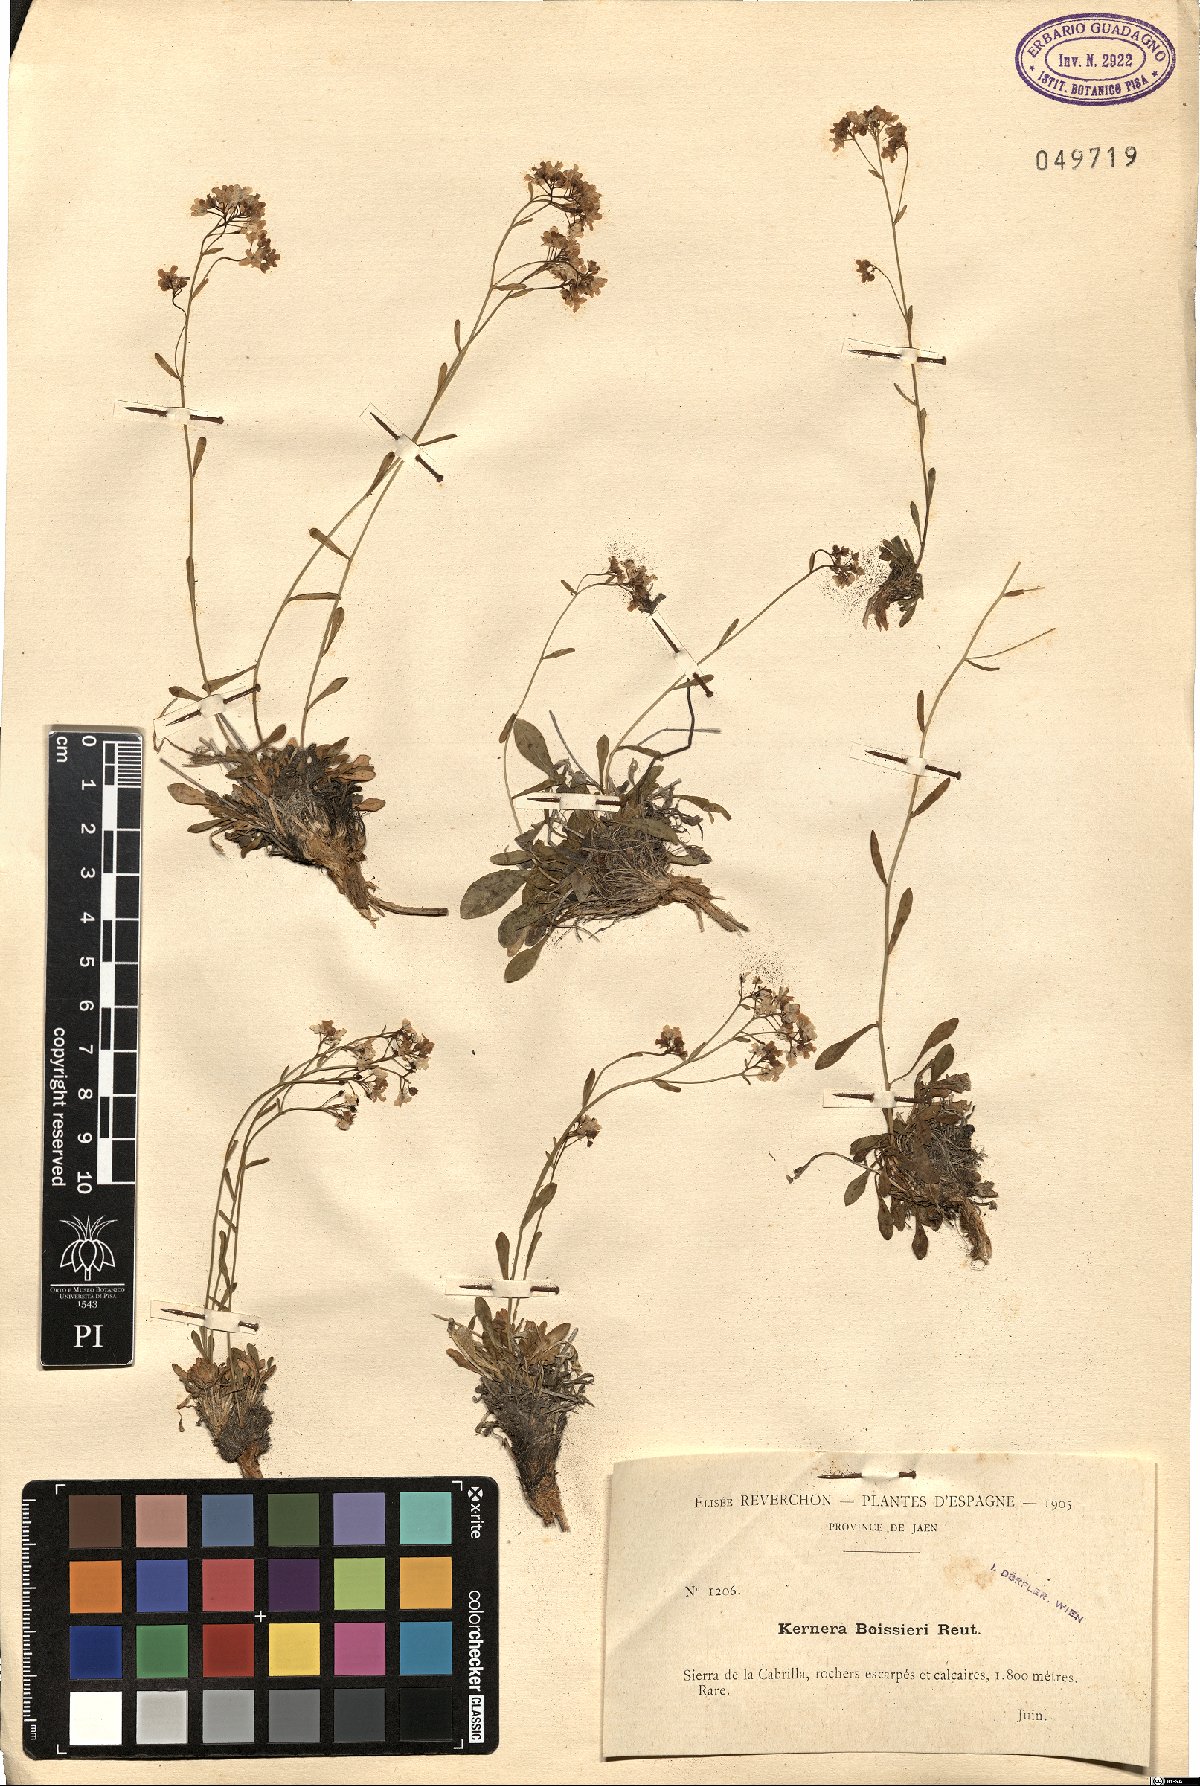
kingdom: Plantae
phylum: Tracheophyta
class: Magnoliopsida
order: Brassicales
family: Brassicaceae
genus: Kernera
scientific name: Kernera saxatilis
